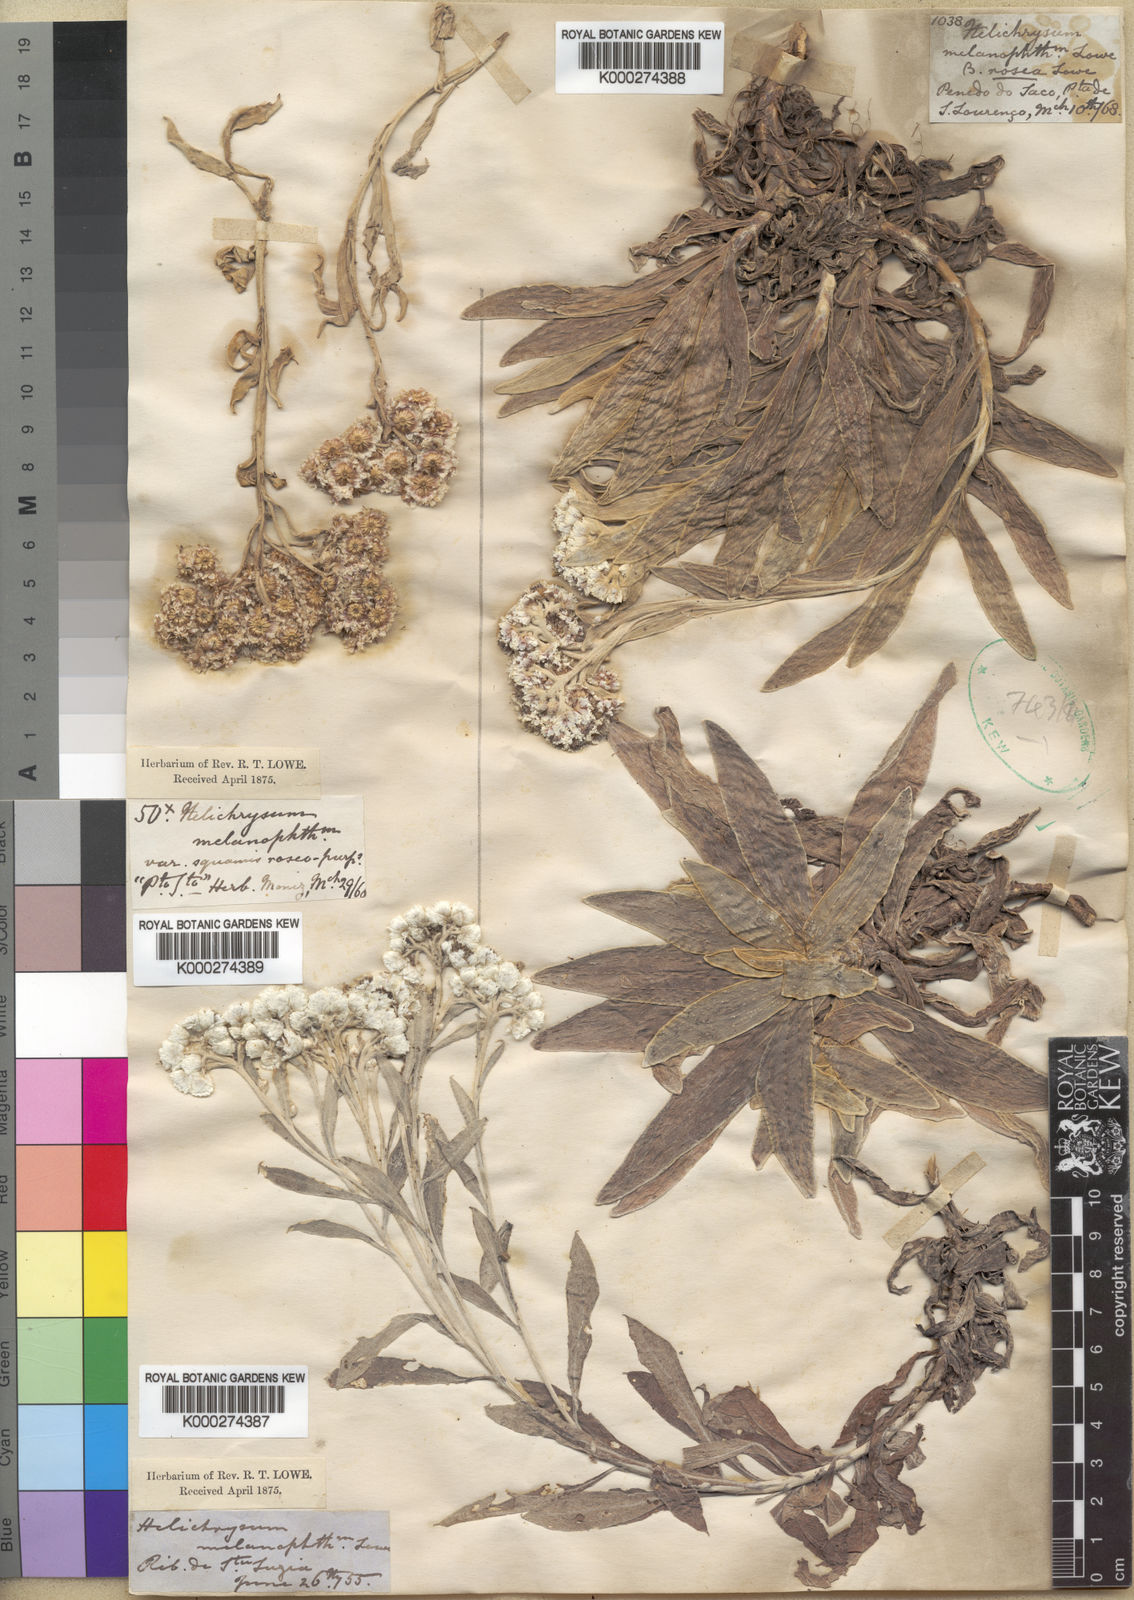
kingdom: Plantae
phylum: Tracheophyta
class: Magnoliopsida
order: Asterales
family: Asteraceae
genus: Helichrysum
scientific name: Helichrysum
